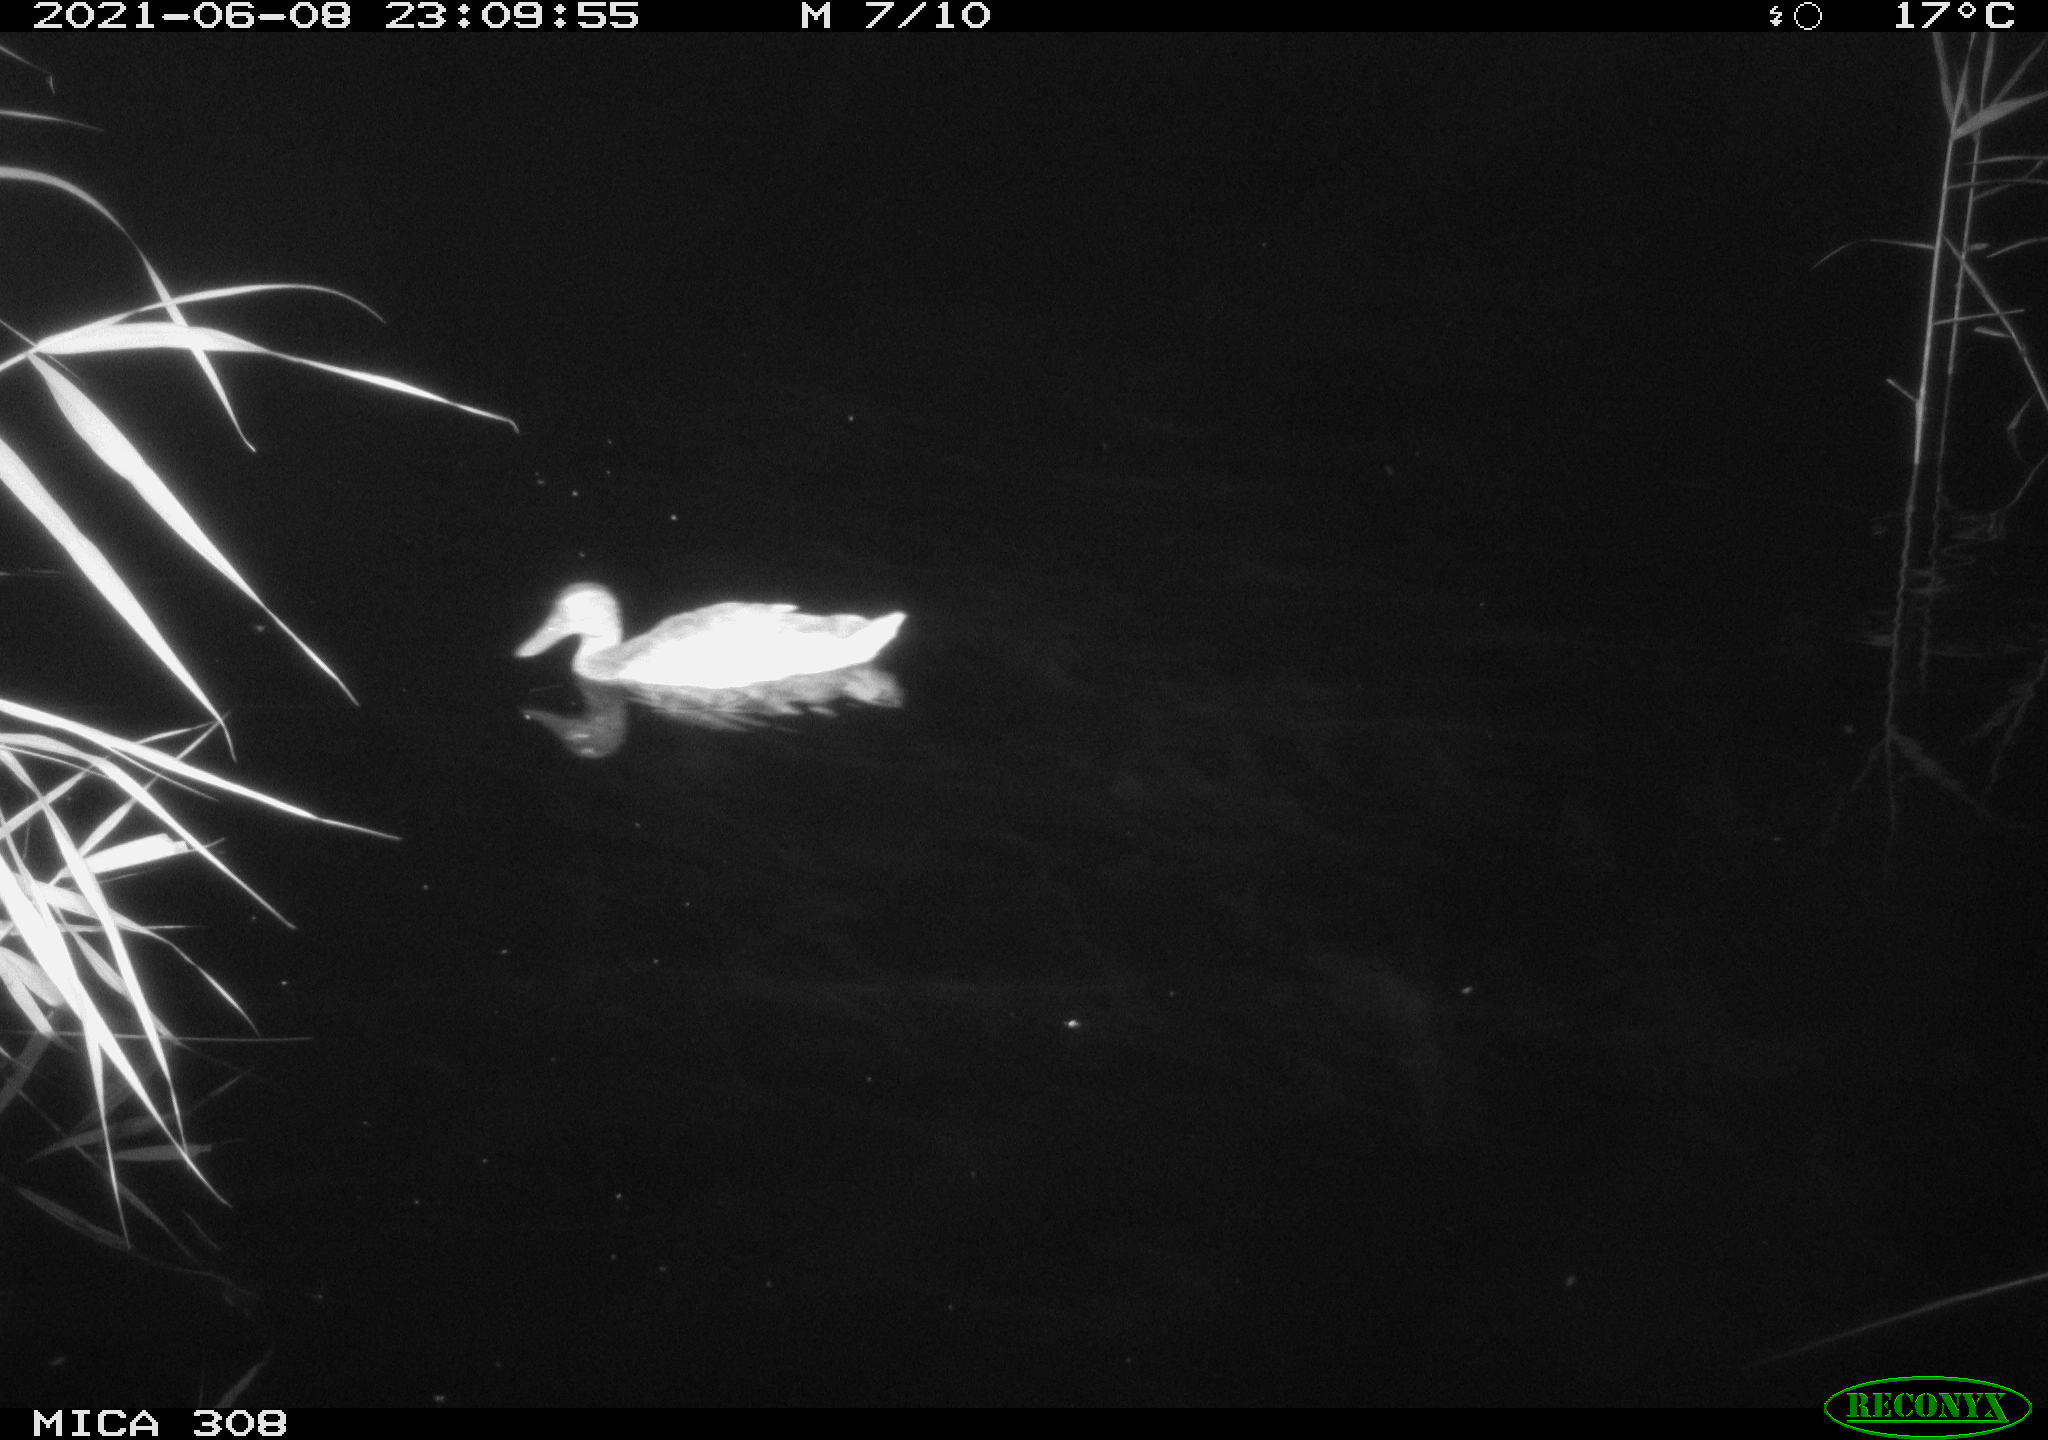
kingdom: Animalia
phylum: Chordata
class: Aves
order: Anseriformes
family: Anatidae
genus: Anas
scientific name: Anas platyrhynchos
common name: Mallard
